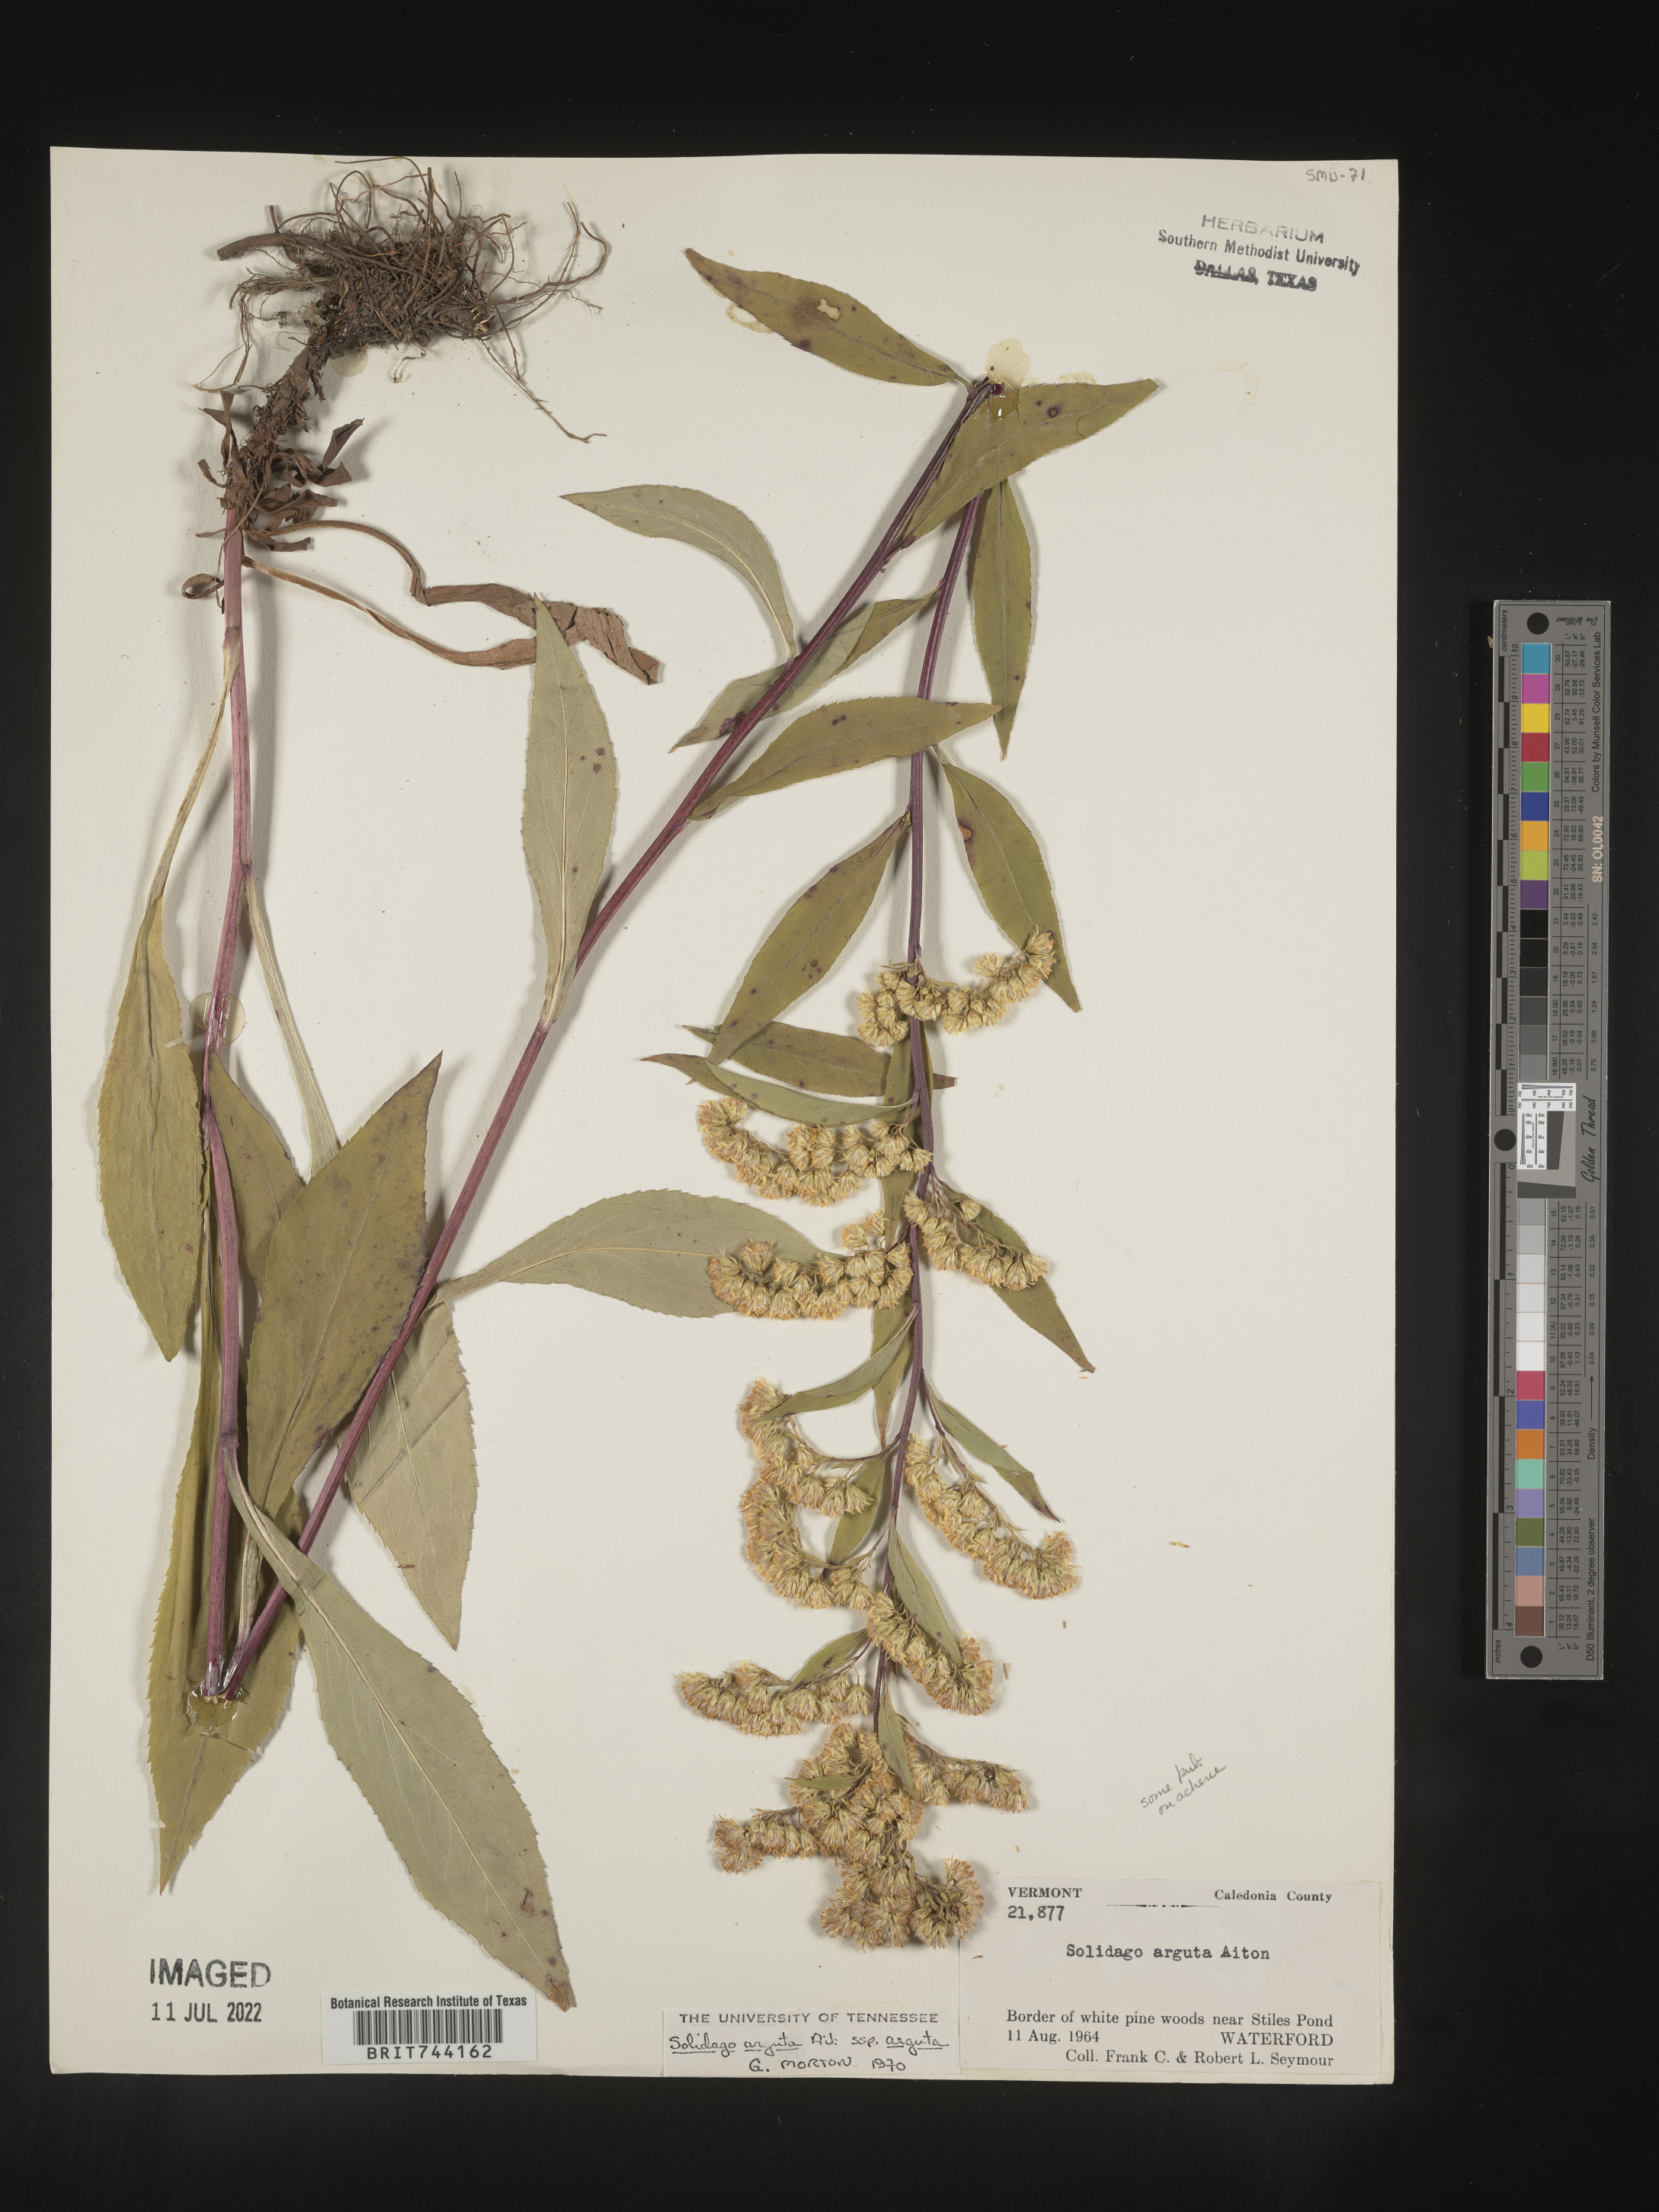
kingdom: Plantae
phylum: Tracheophyta
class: Magnoliopsida
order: Asterales
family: Asteraceae
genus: Solidago
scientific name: Solidago arguta
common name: Atlantic goldenrod
